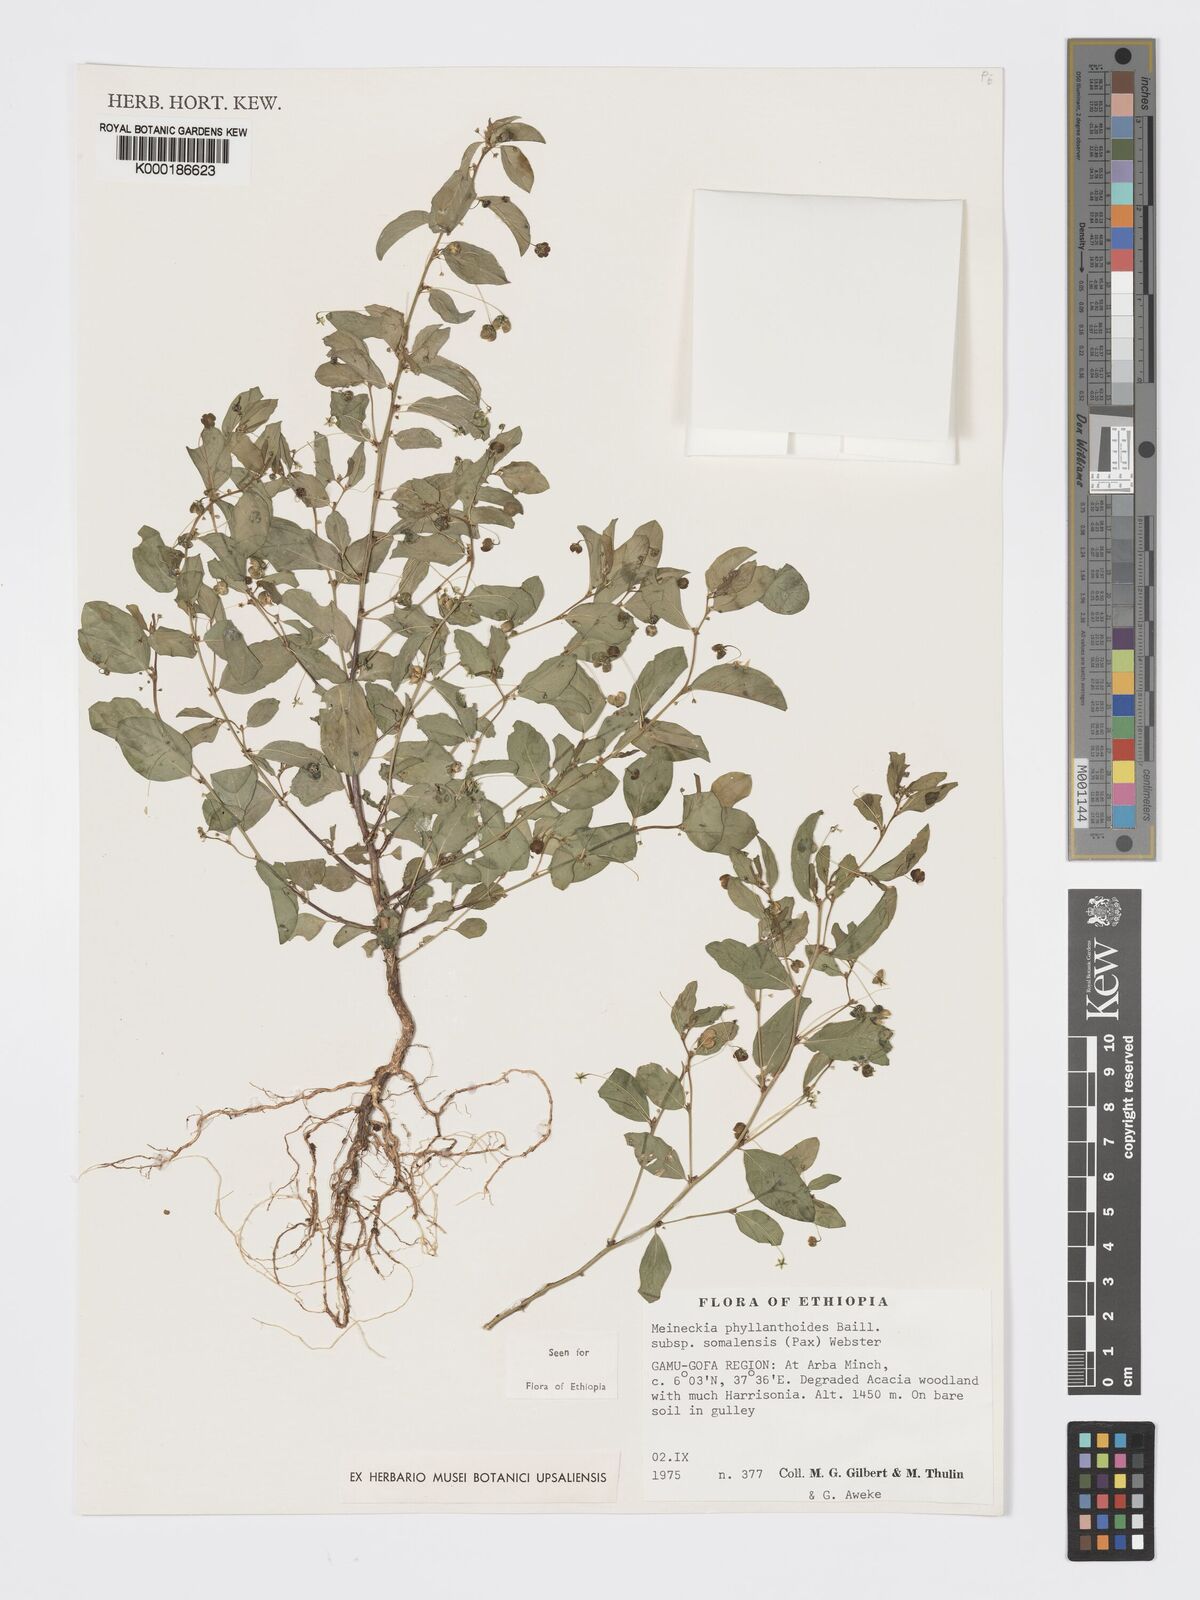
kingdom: Plantae
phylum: Tracheophyta
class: Magnoliopsida
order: Malpighiales
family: Phyllanthaceae
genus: Meineckia
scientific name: Meineckia phyllanthoides
